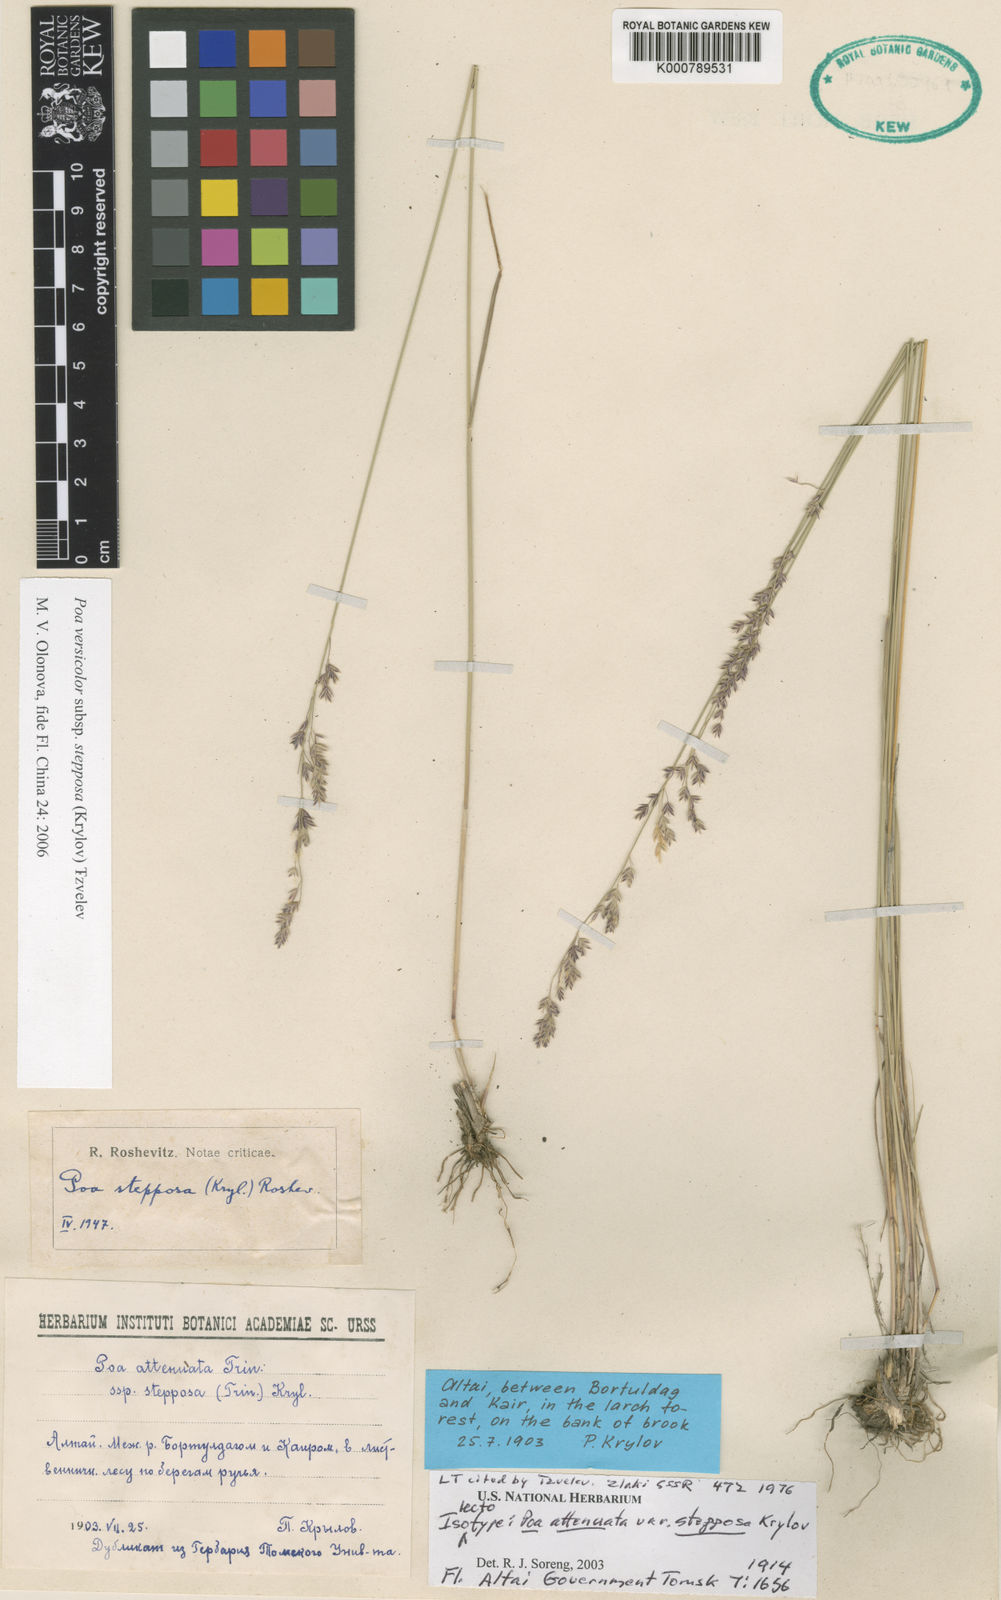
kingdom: Plantae
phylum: Tracheophyta
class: Liliopsida
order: Poales
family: Poaceae
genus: Poa
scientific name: Poa versicolor
